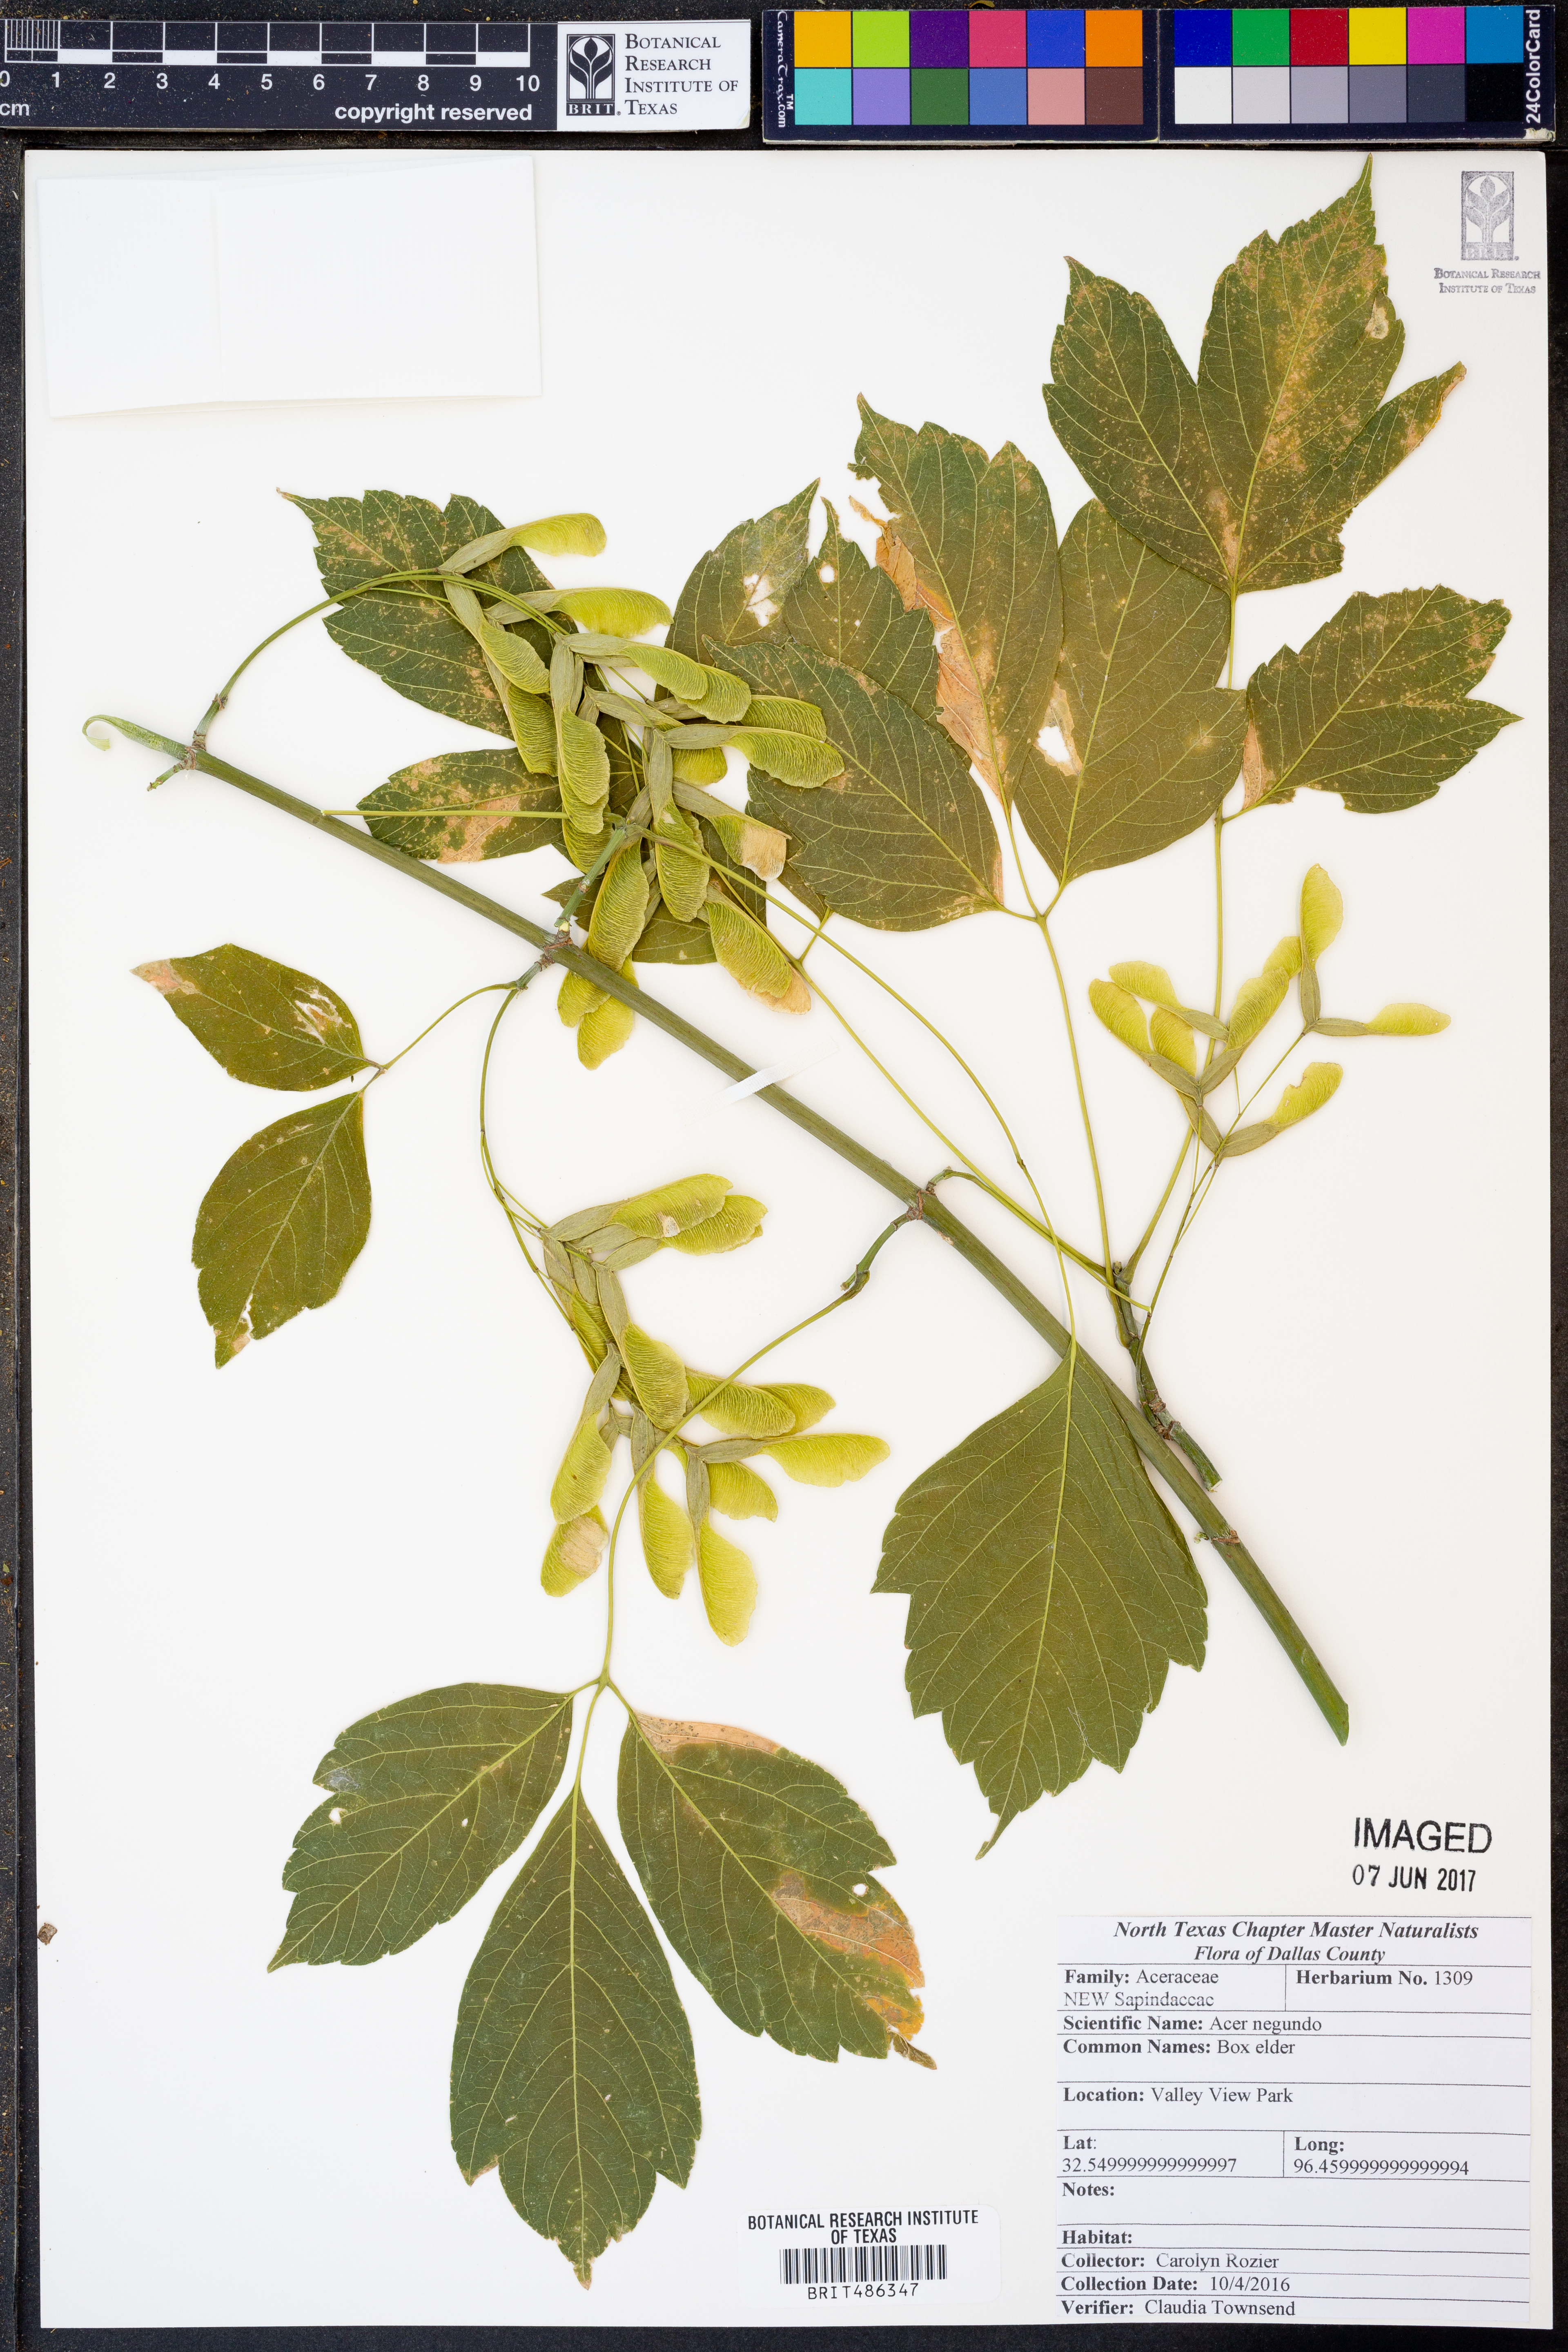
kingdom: Plantae
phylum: Tracheophyta
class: Magnoliopsida
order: Sapindales
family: Sapindaceae
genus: Acer
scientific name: Acer negundo
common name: Ashleaf maple
